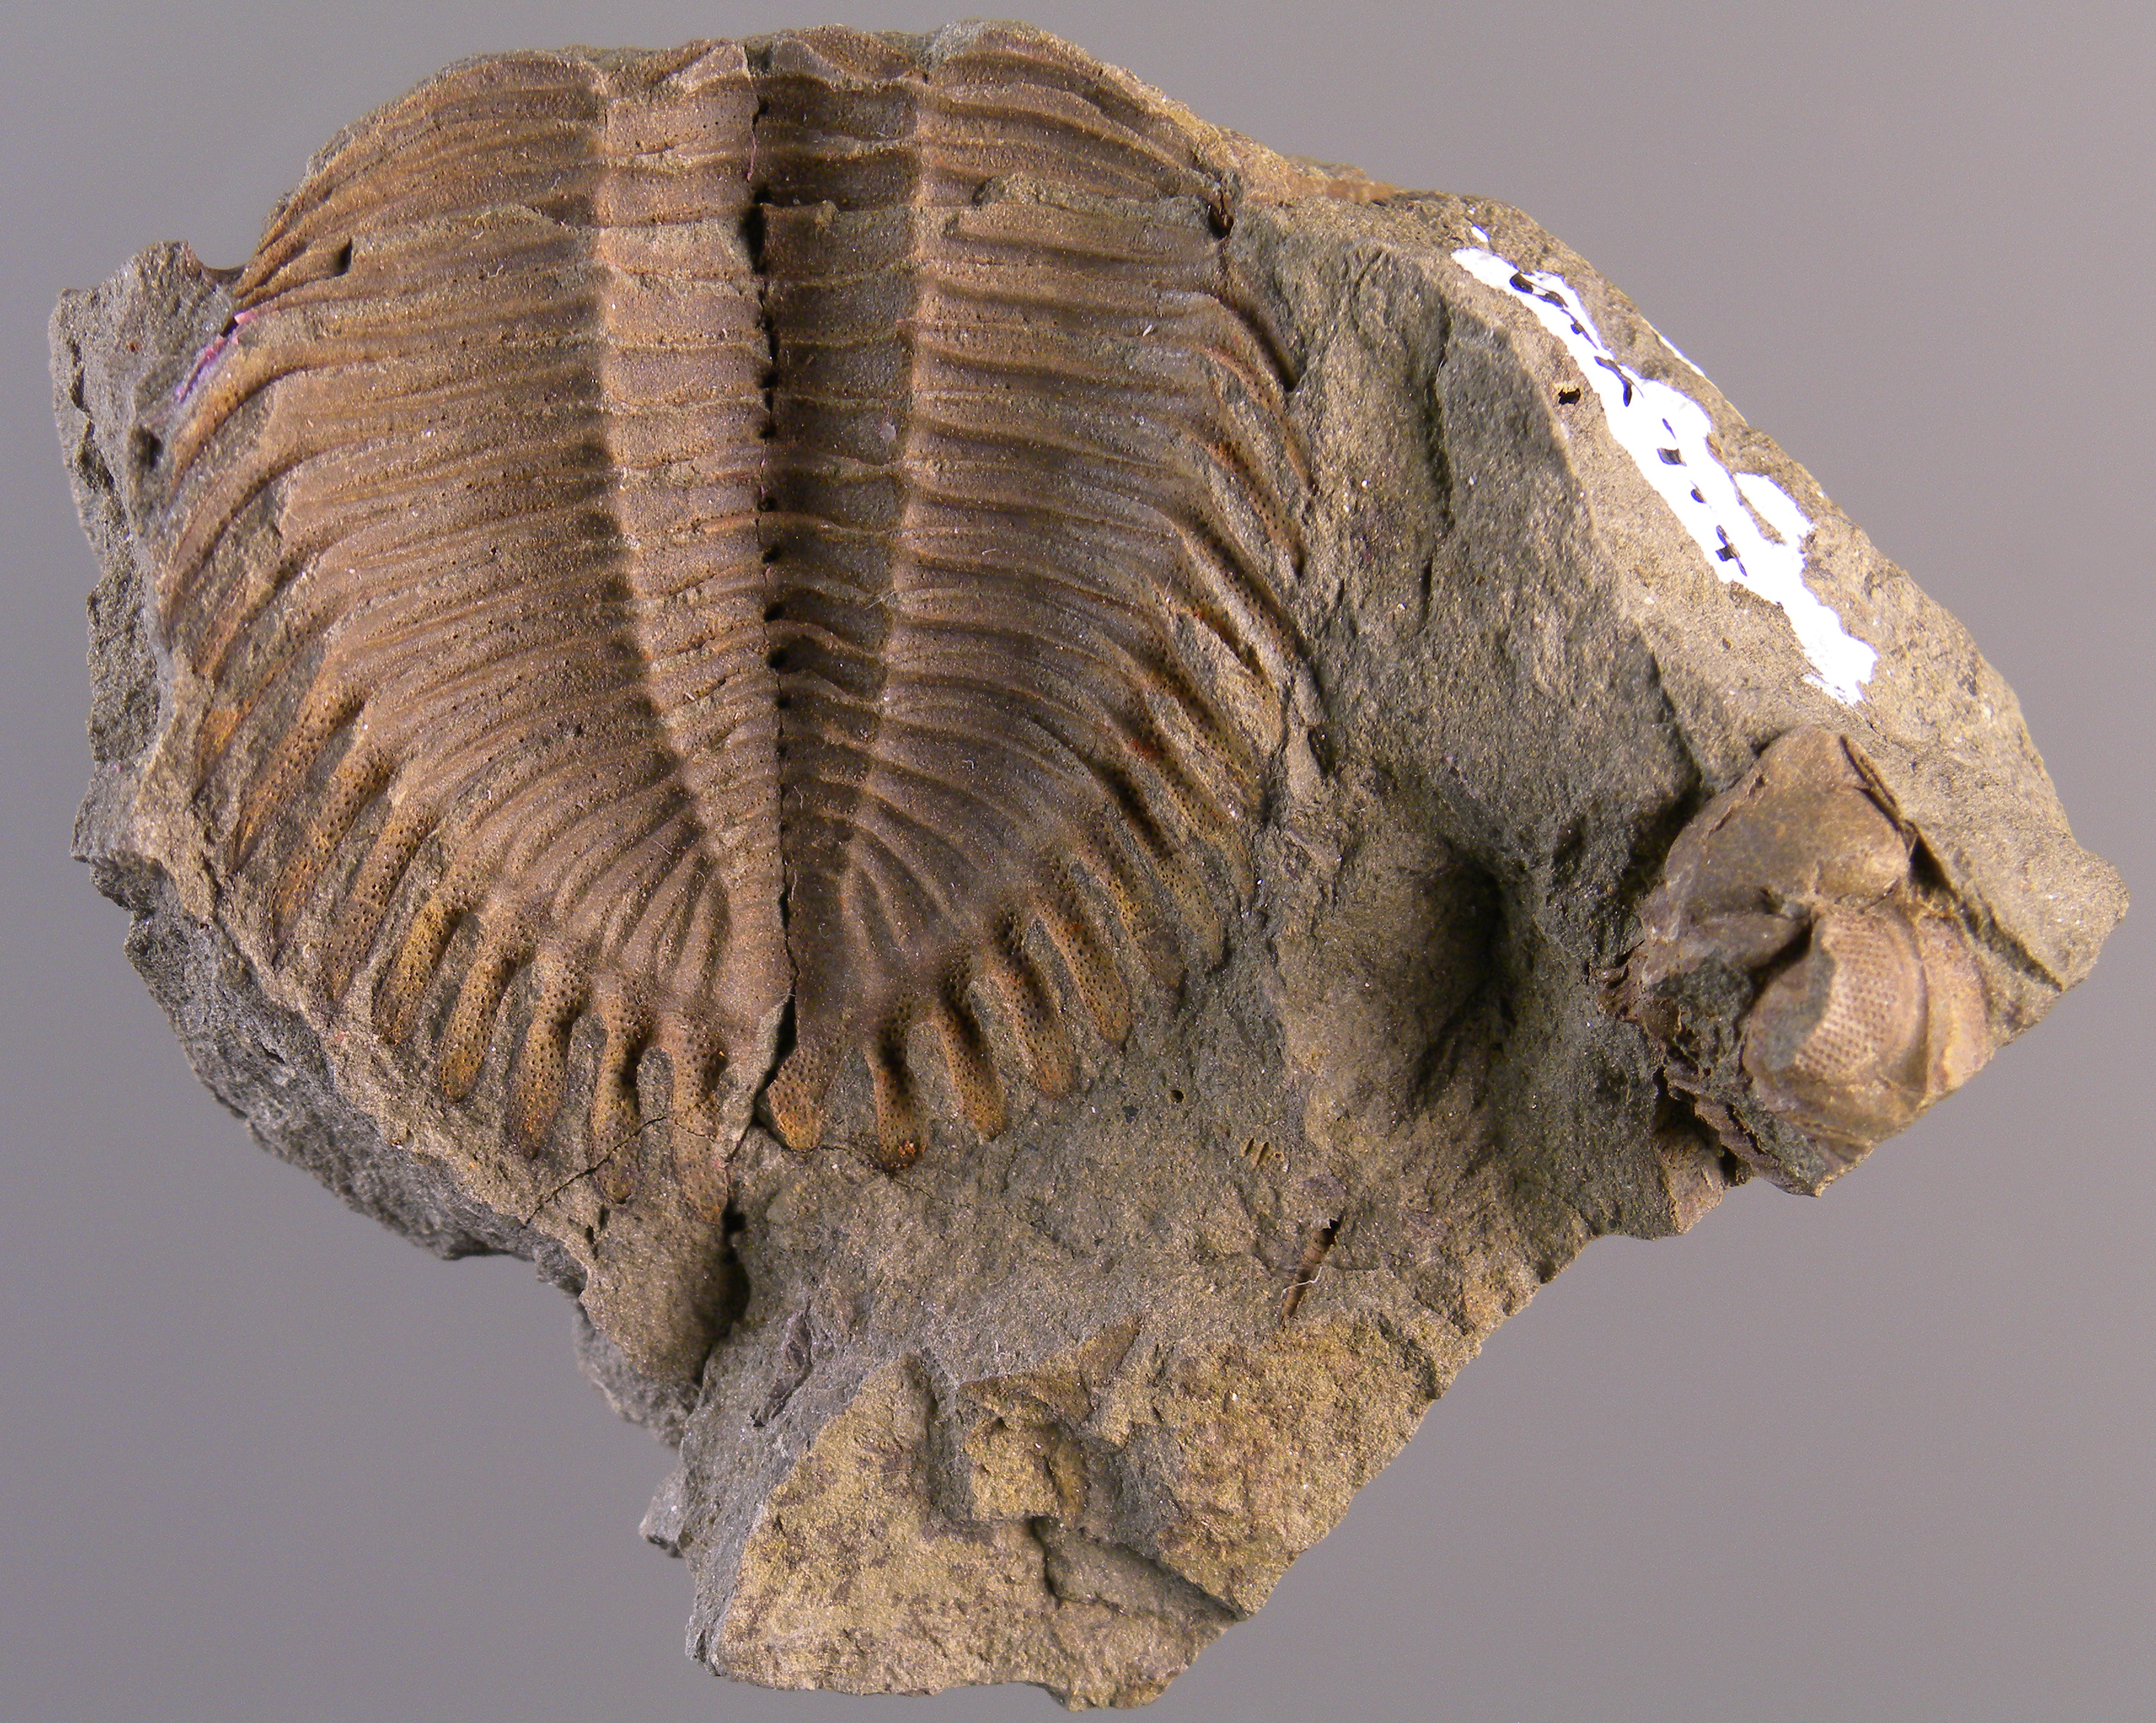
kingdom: Animalia
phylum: Arthropoda
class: Trilobita
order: Phacopida
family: Acastidae
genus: Braunops
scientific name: Braunops
